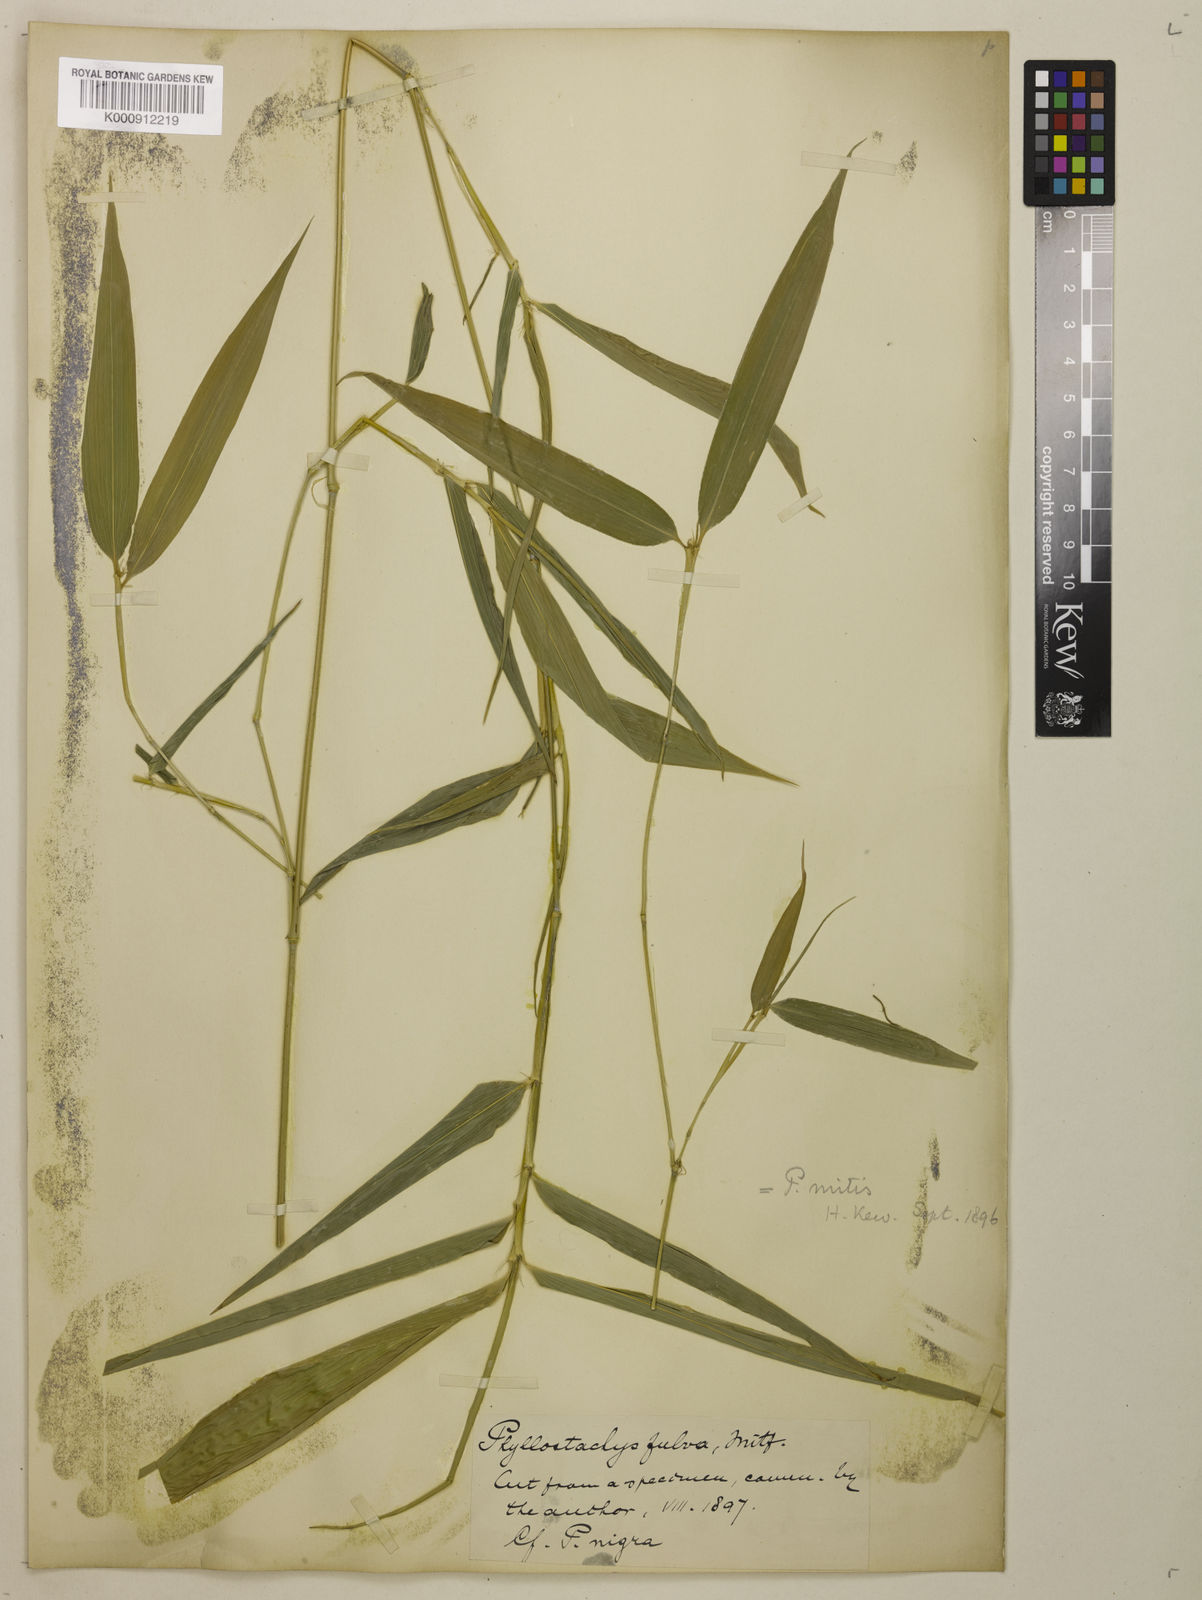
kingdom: Plantae
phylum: Tracheophyta
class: Liliopsida
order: Poales
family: Poaceae
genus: Phyllostachys
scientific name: Phyllostachys
